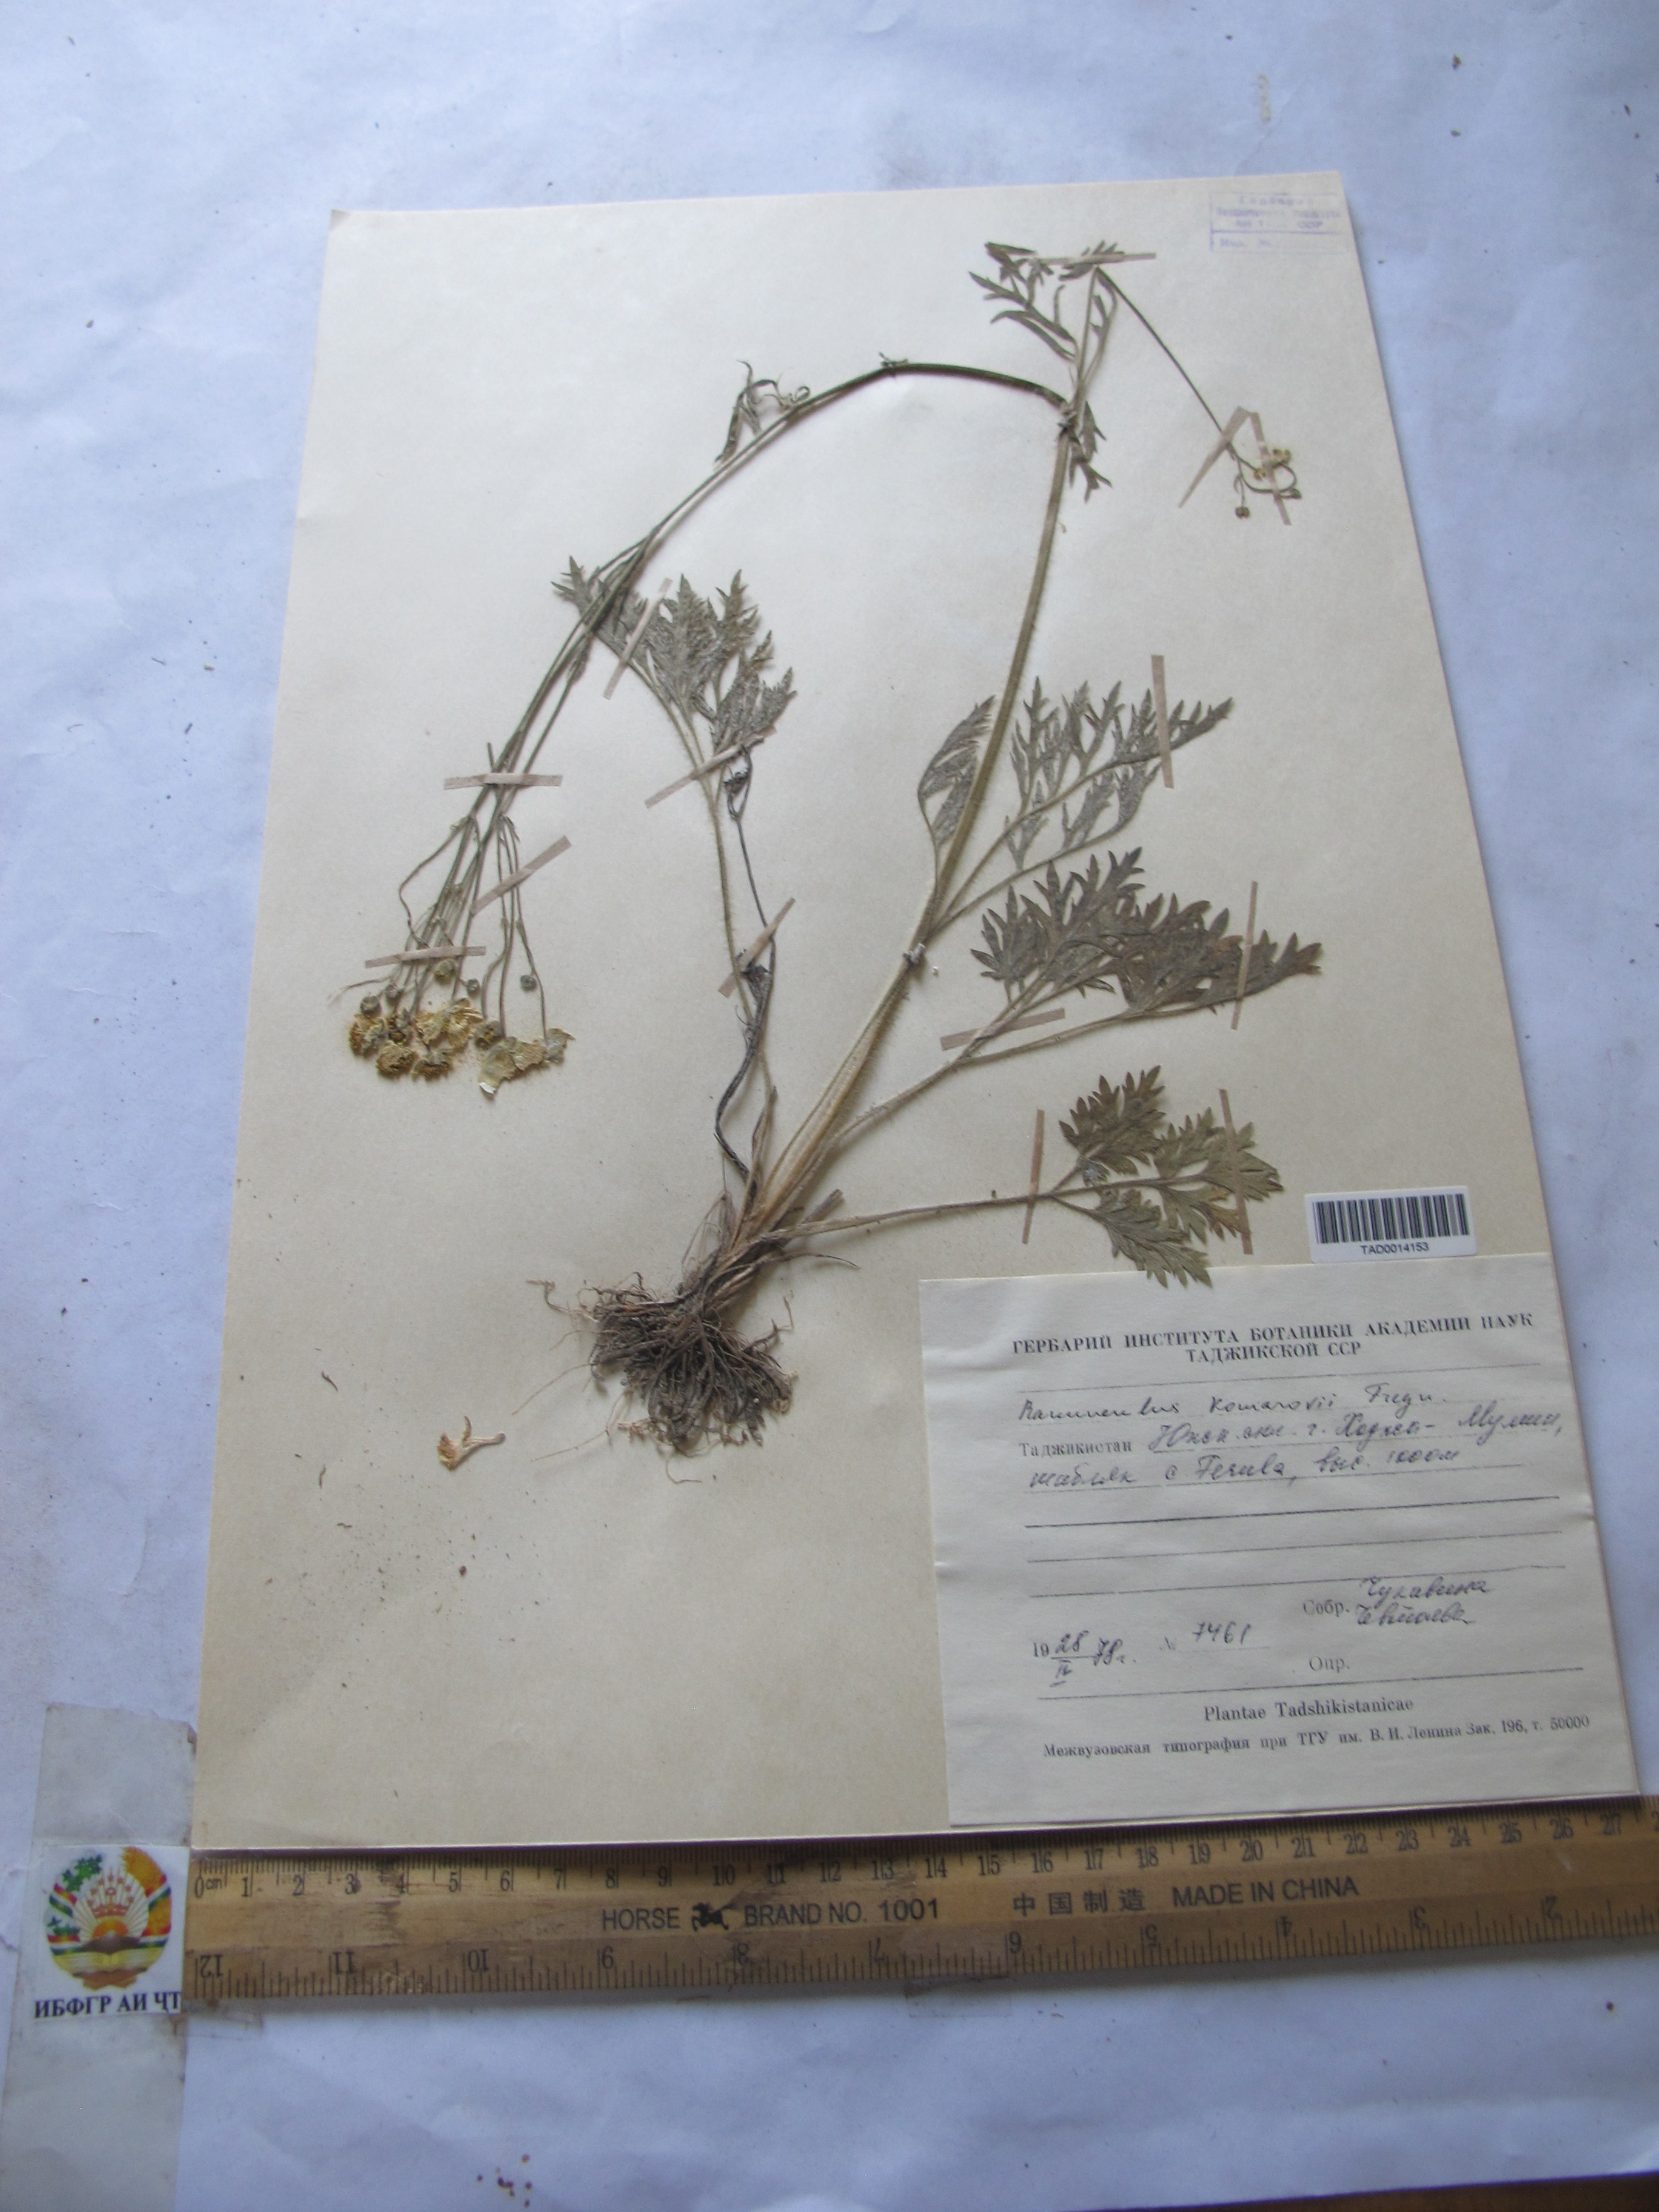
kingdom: Plantae
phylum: Tracheophyta
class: Magnoliopsida
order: Ranunculales
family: Ranunculaceae
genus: Ranunculus
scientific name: Ranunculus komarovii
